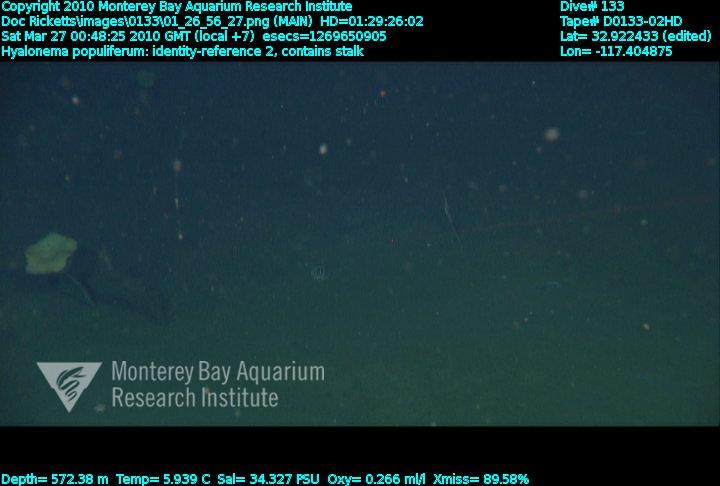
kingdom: Animalia
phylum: Porifera
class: Hexactinellida
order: Amphidiscosida
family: Hyalonematidae
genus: Hyalonema
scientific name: Hyalonema populiferum
